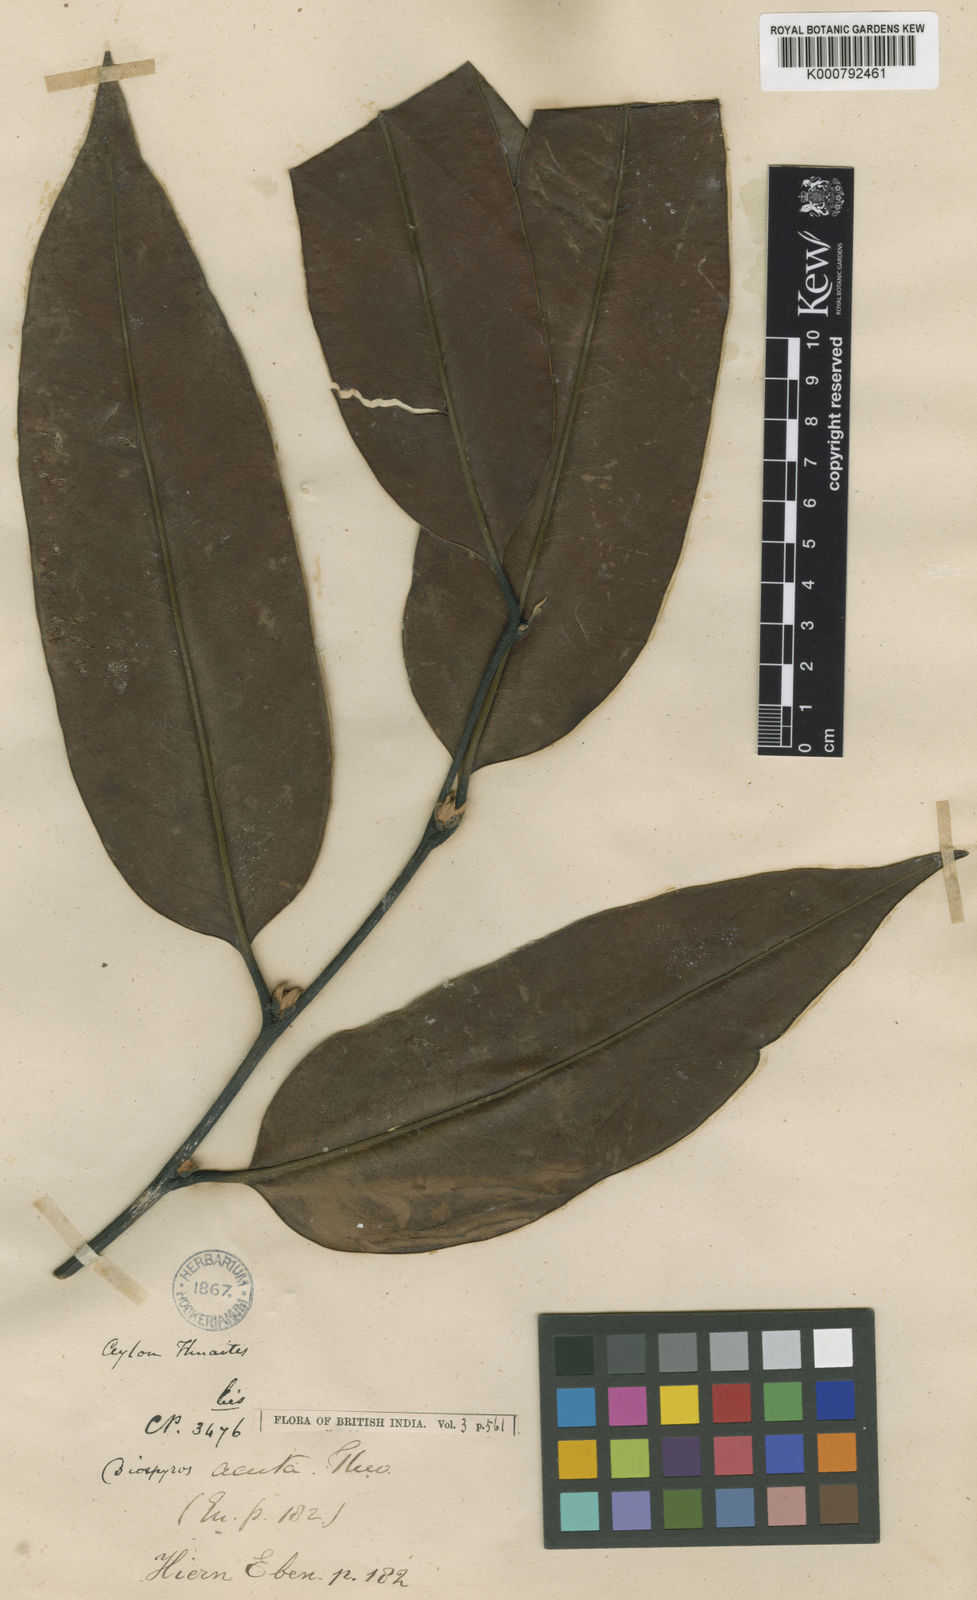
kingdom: Plantae
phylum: Tracheophyta
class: Magnoliopsida
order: Ericales
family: Ebenaceae
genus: Diospyros
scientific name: Diospyros acuta
